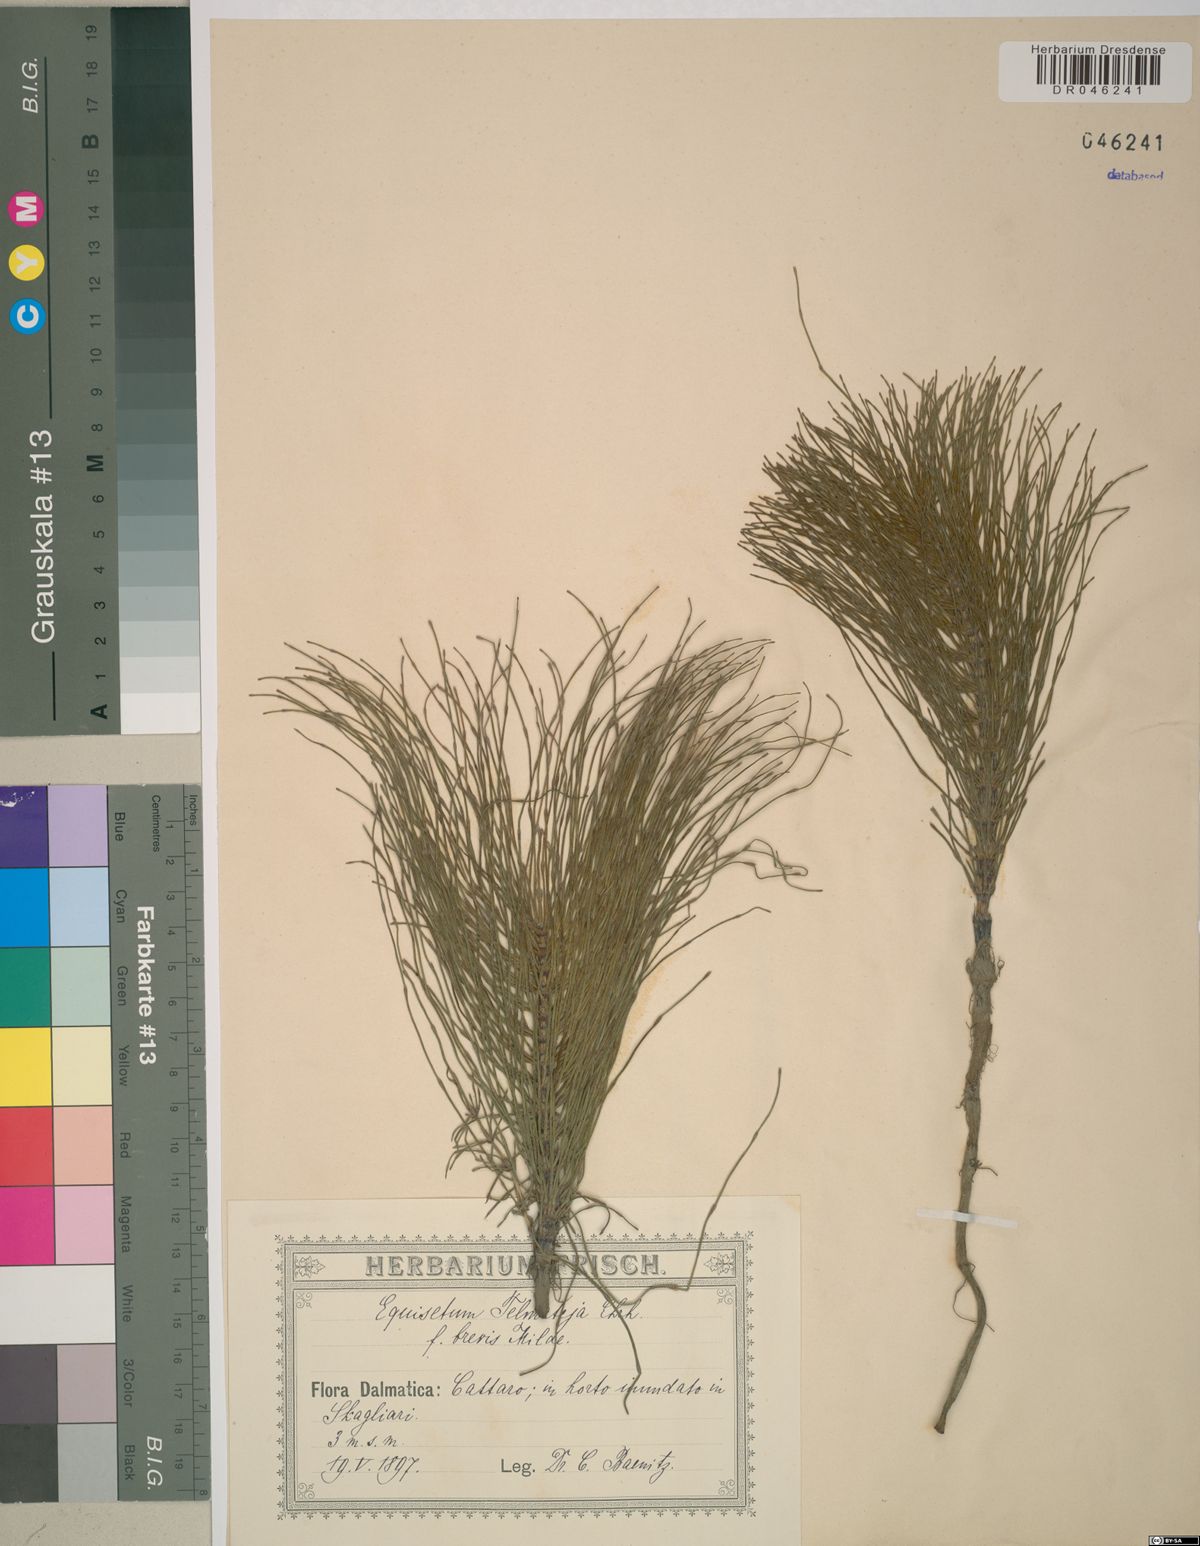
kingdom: Plantae
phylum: Tracheophyta
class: Polypodiopsida
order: Equisetales
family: Equisetaceae
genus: Equisetum
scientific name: Equisetum telmateia
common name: Great horsetail
